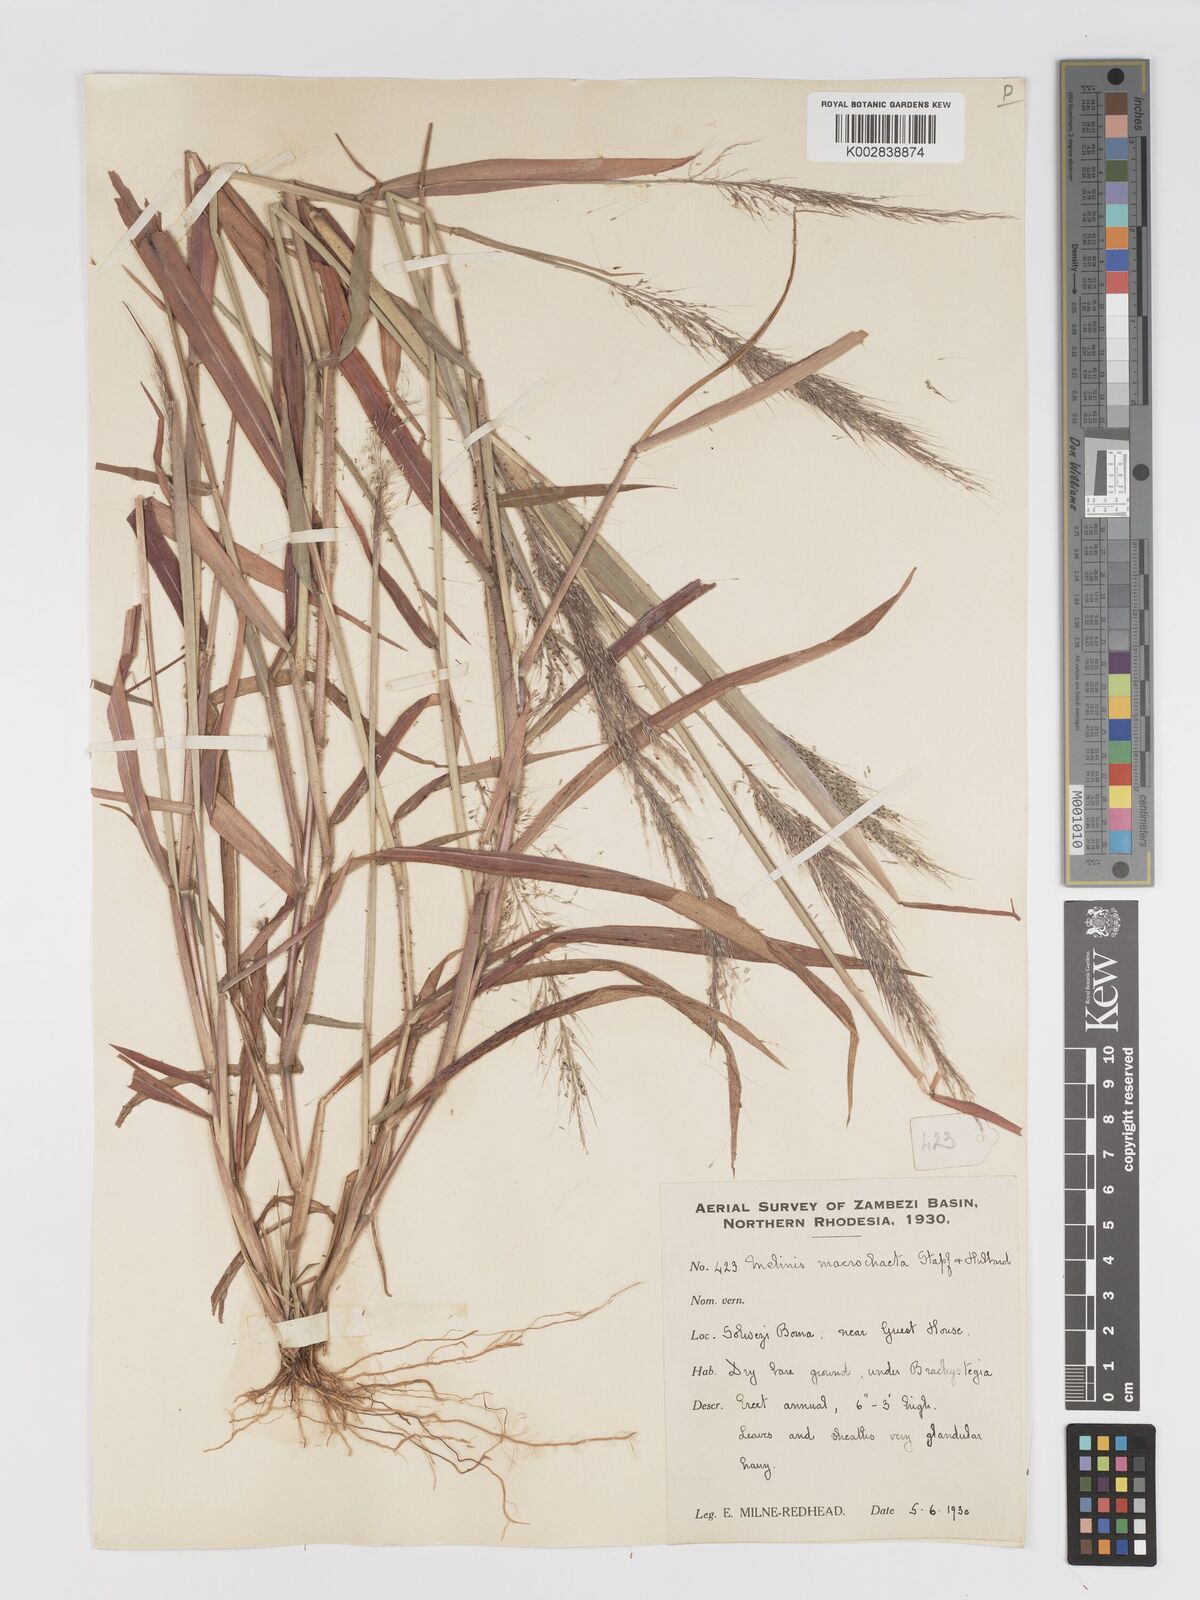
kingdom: Plantae
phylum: Tracheophyta
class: Liliopsida
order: Poales
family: Poaceae
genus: Melinis
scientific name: Melinis macrochaeta
